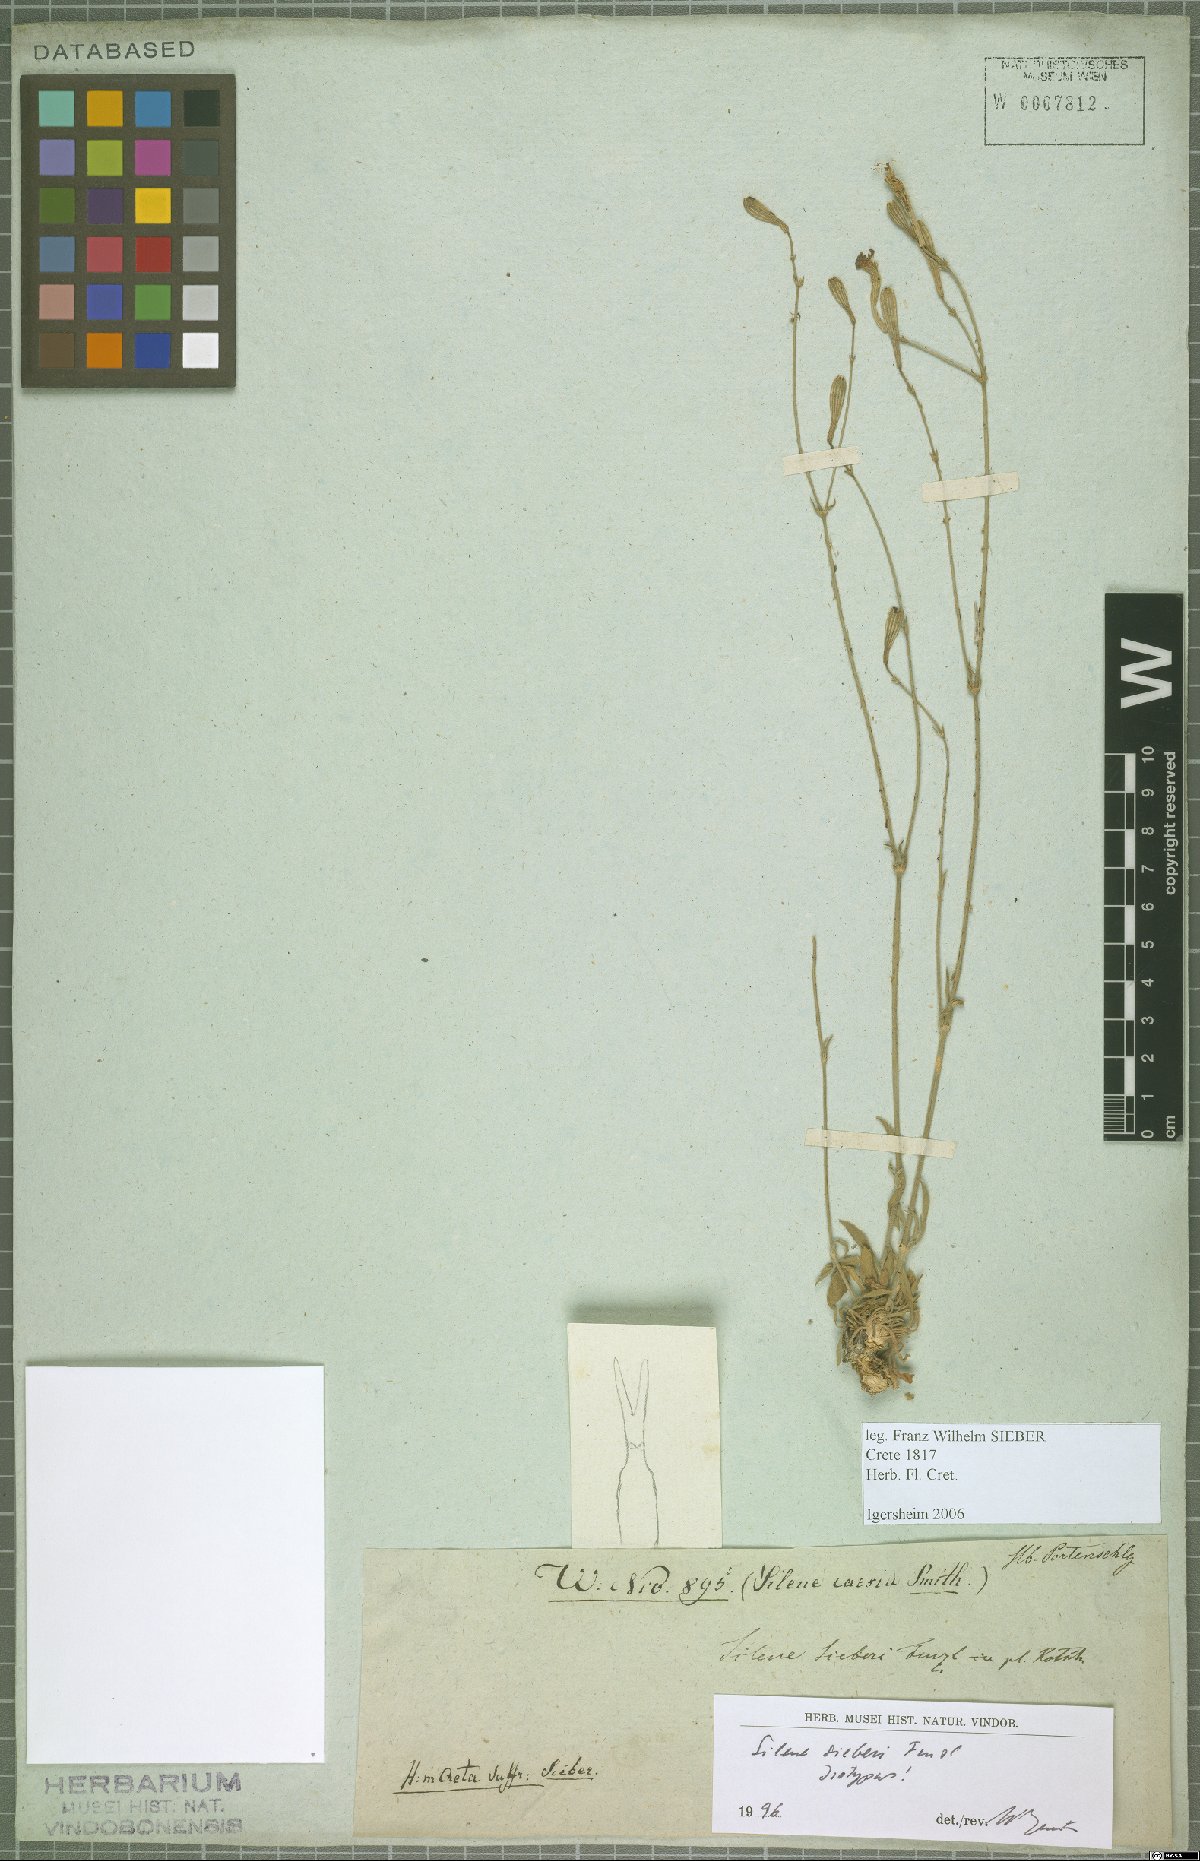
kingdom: Plantae
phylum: Tracheophyta
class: Magnoliopsida
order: Caryophyllales
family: Caryophyllaceae
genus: Silene
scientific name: Silene sieberi
